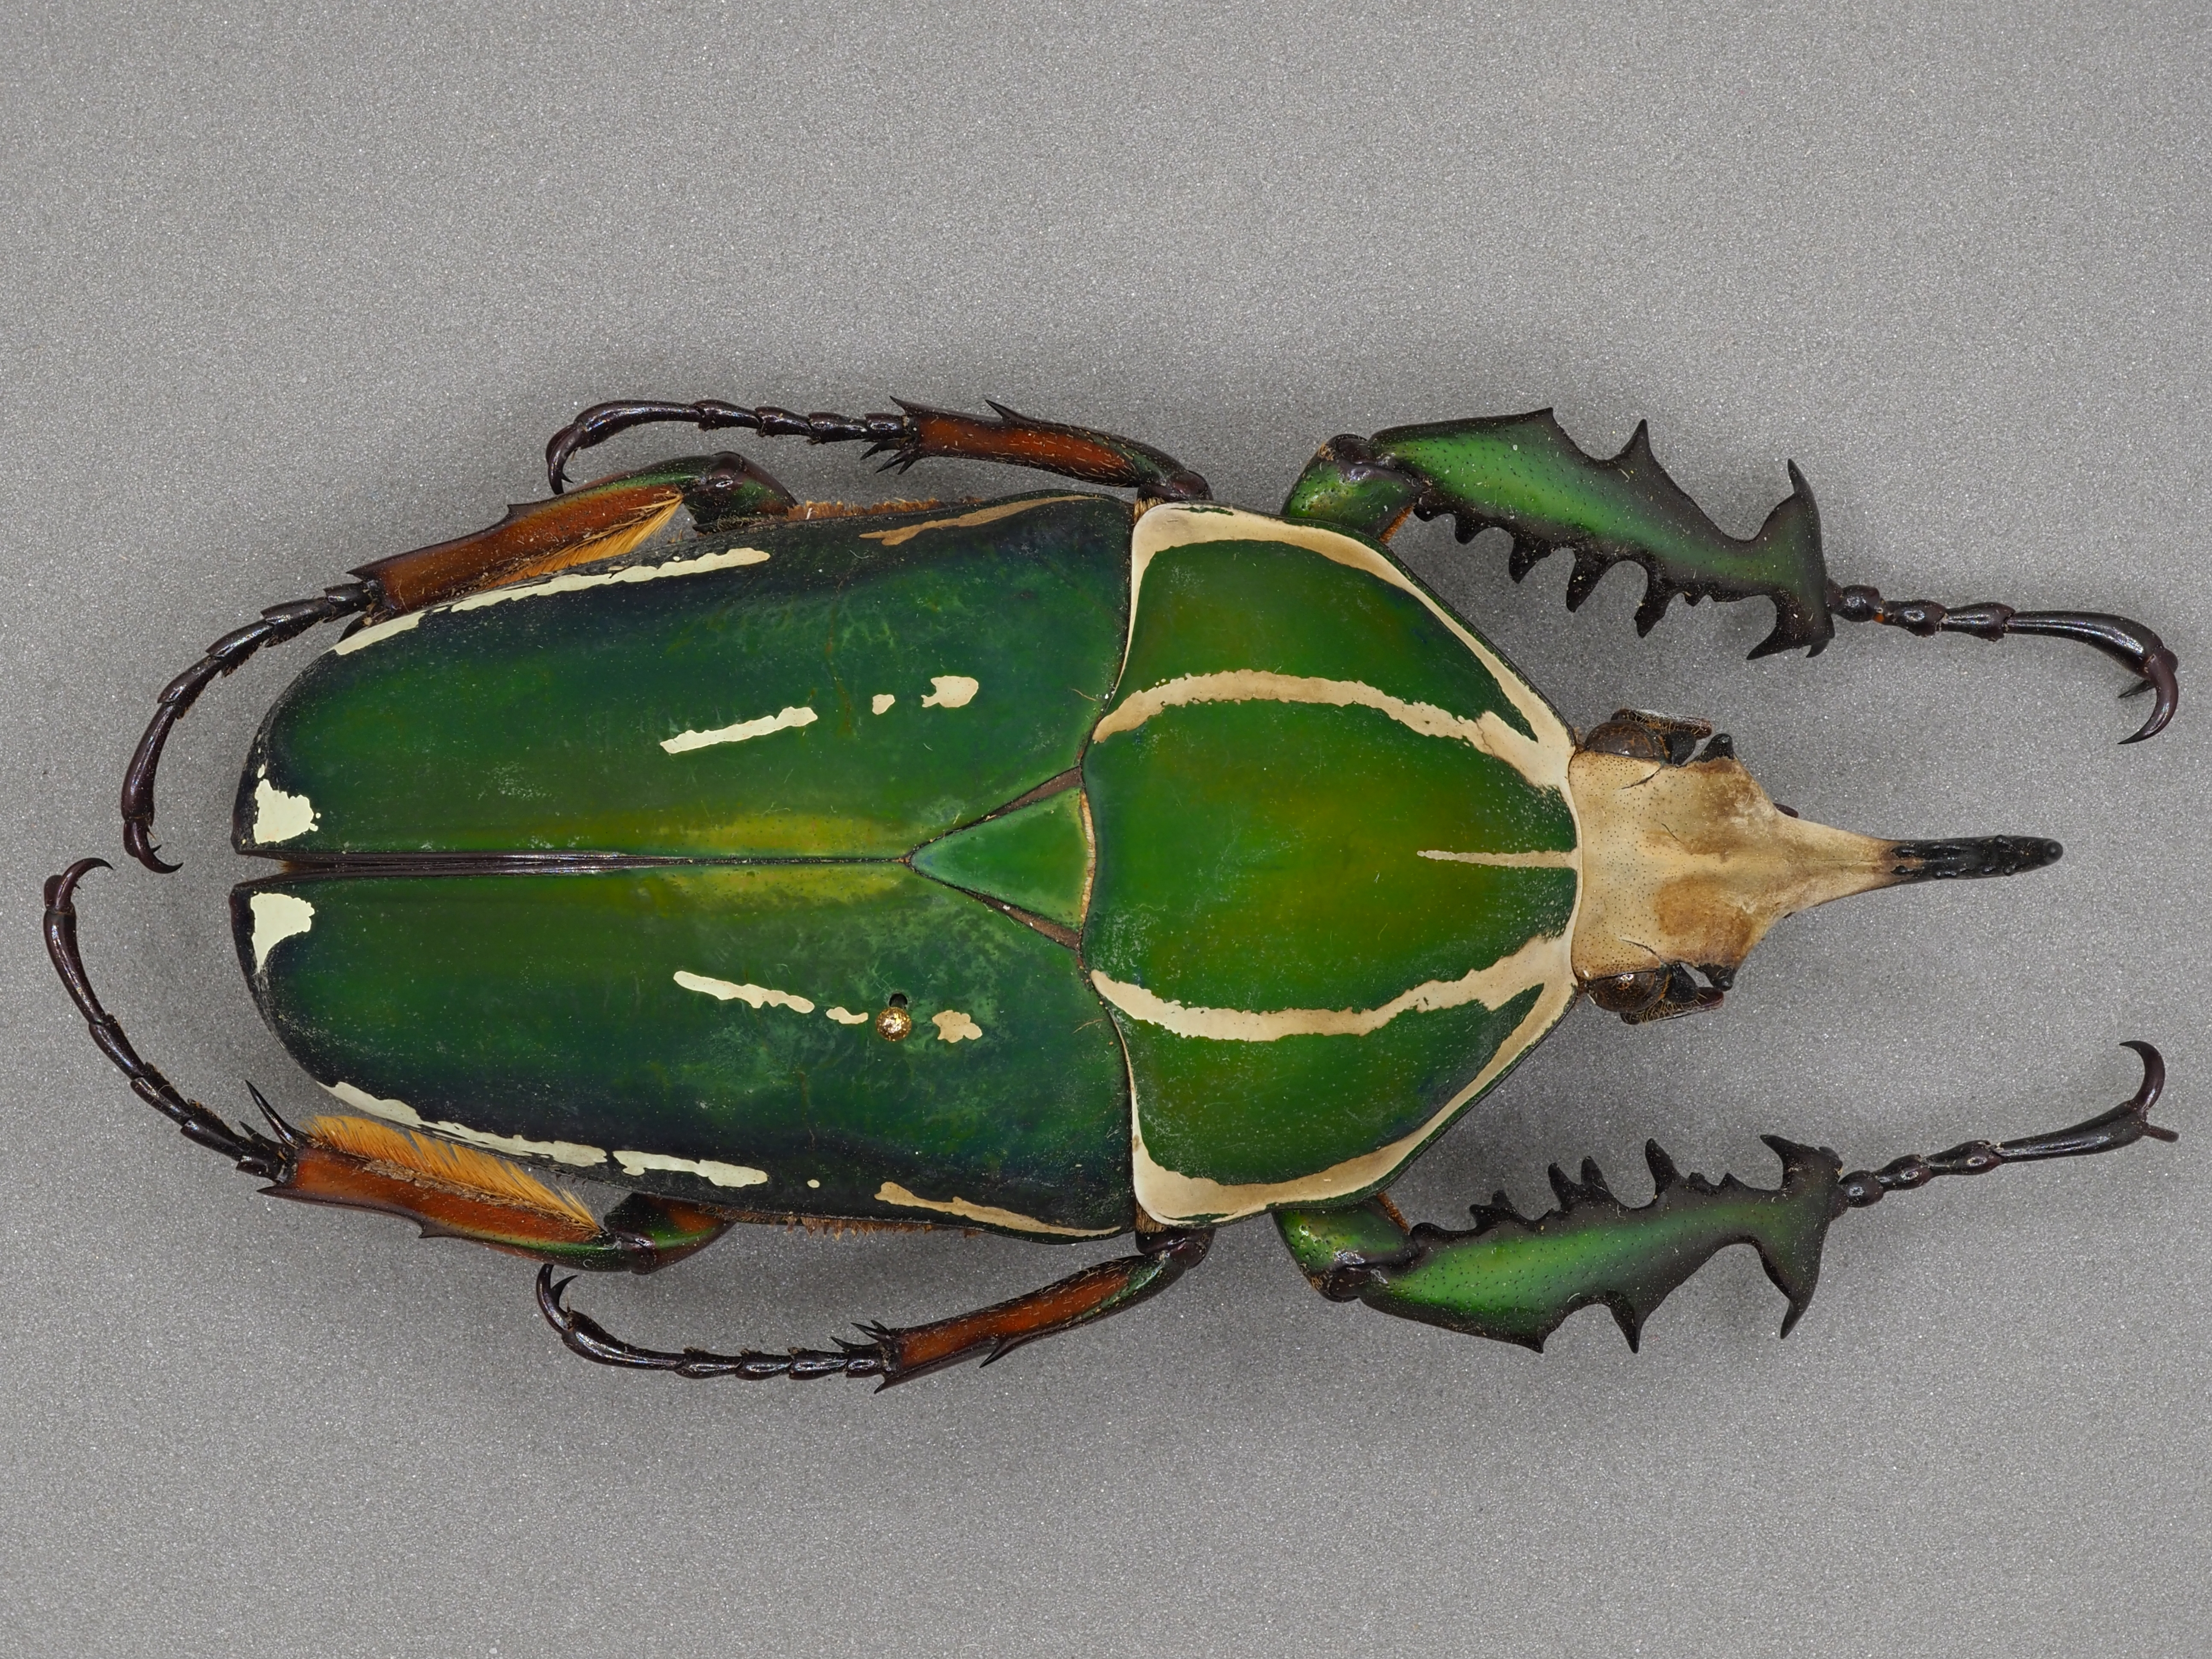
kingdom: Animalia
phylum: Arthropoda
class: Insecta
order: Coleoptera
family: Scarabaeidae
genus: Mecynorhina
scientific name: Mecynorhina torquata
